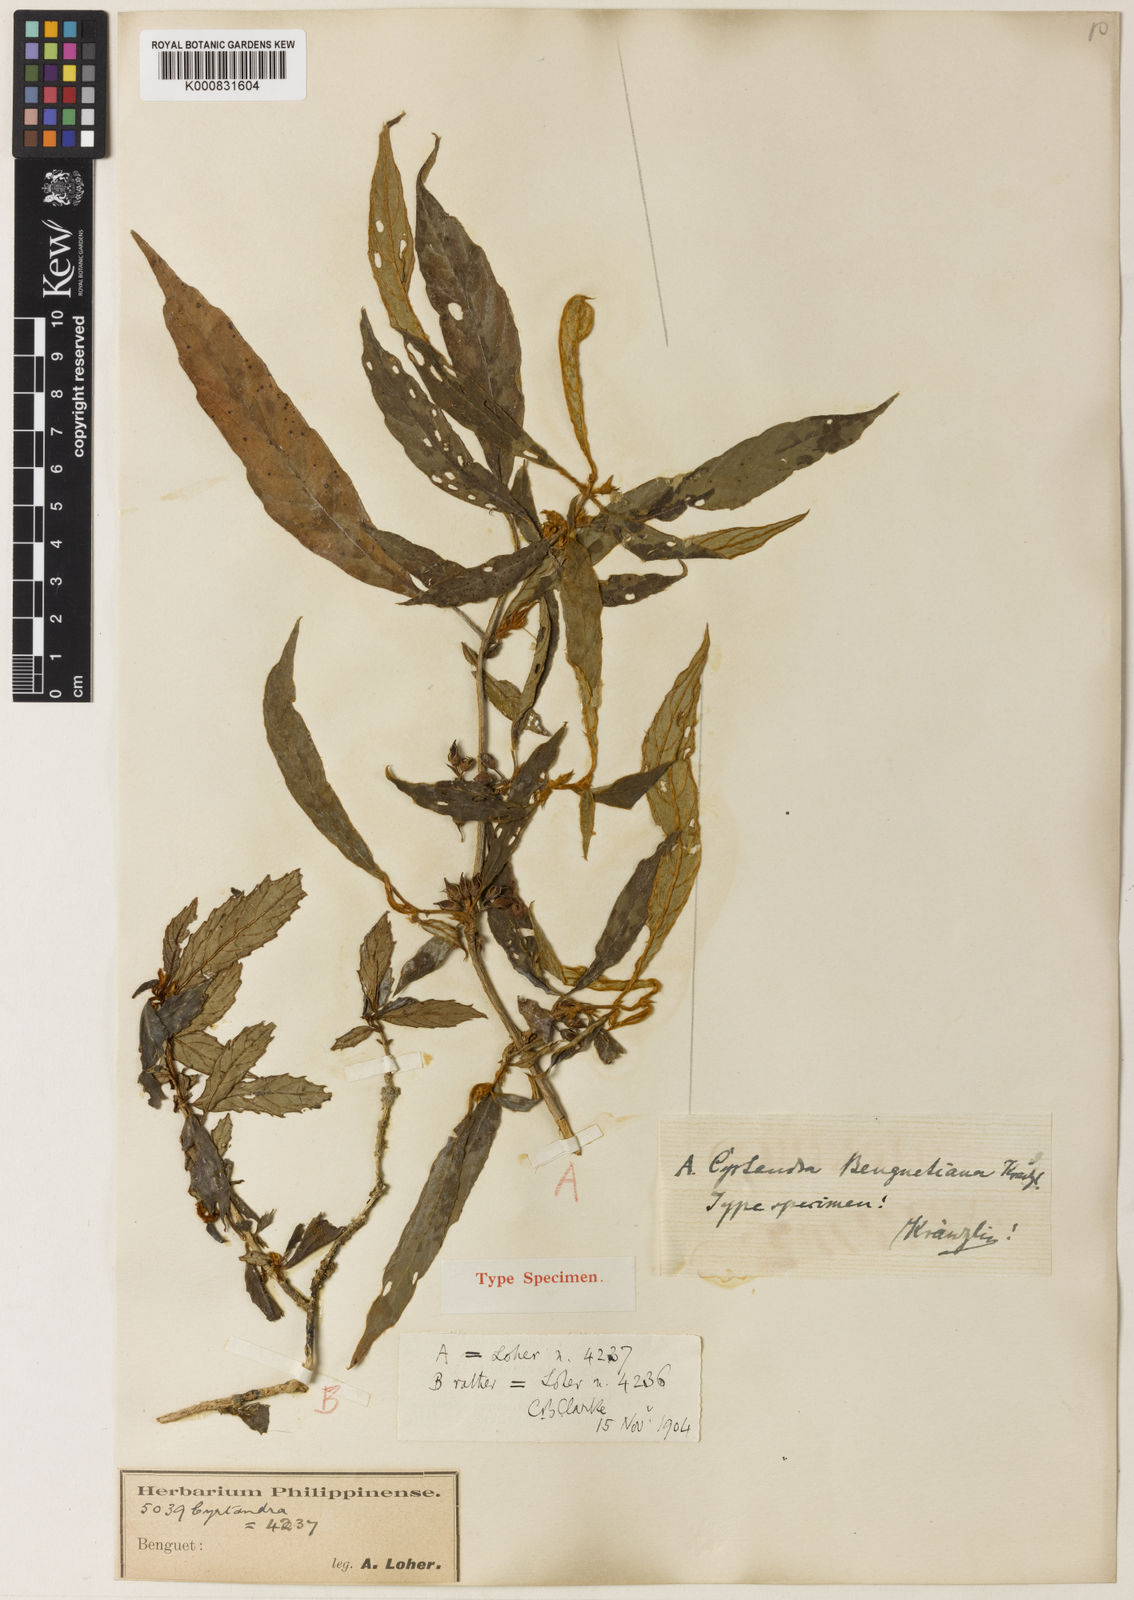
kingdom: Plantae
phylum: Tracheophyta
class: Magnoliopsida
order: Lamiales
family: Gesneriaceae
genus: Cyrtandra
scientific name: Cyrtandra benguetiana
